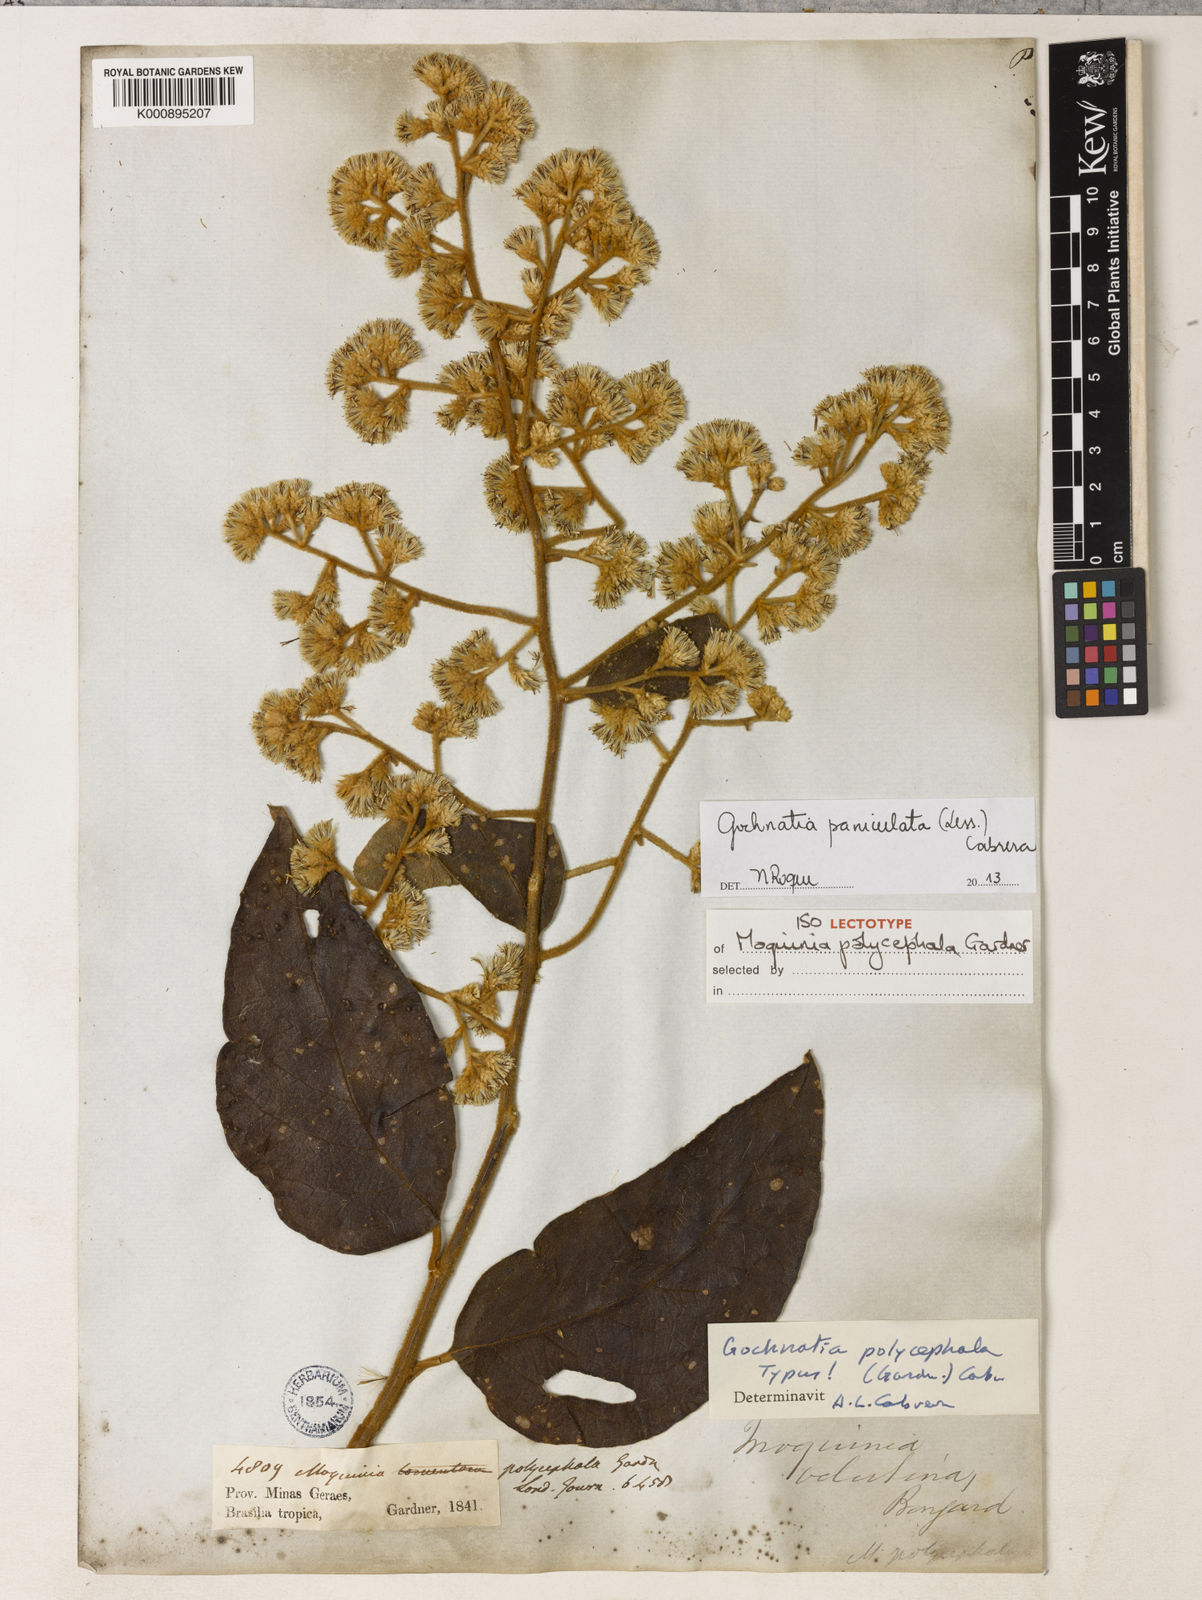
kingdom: Plantae
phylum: Tracheophyta
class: Magnoliopsida
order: Asterales
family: Asteraceae
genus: Moquiniastrum
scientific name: Moquiniastrum paniculatum
